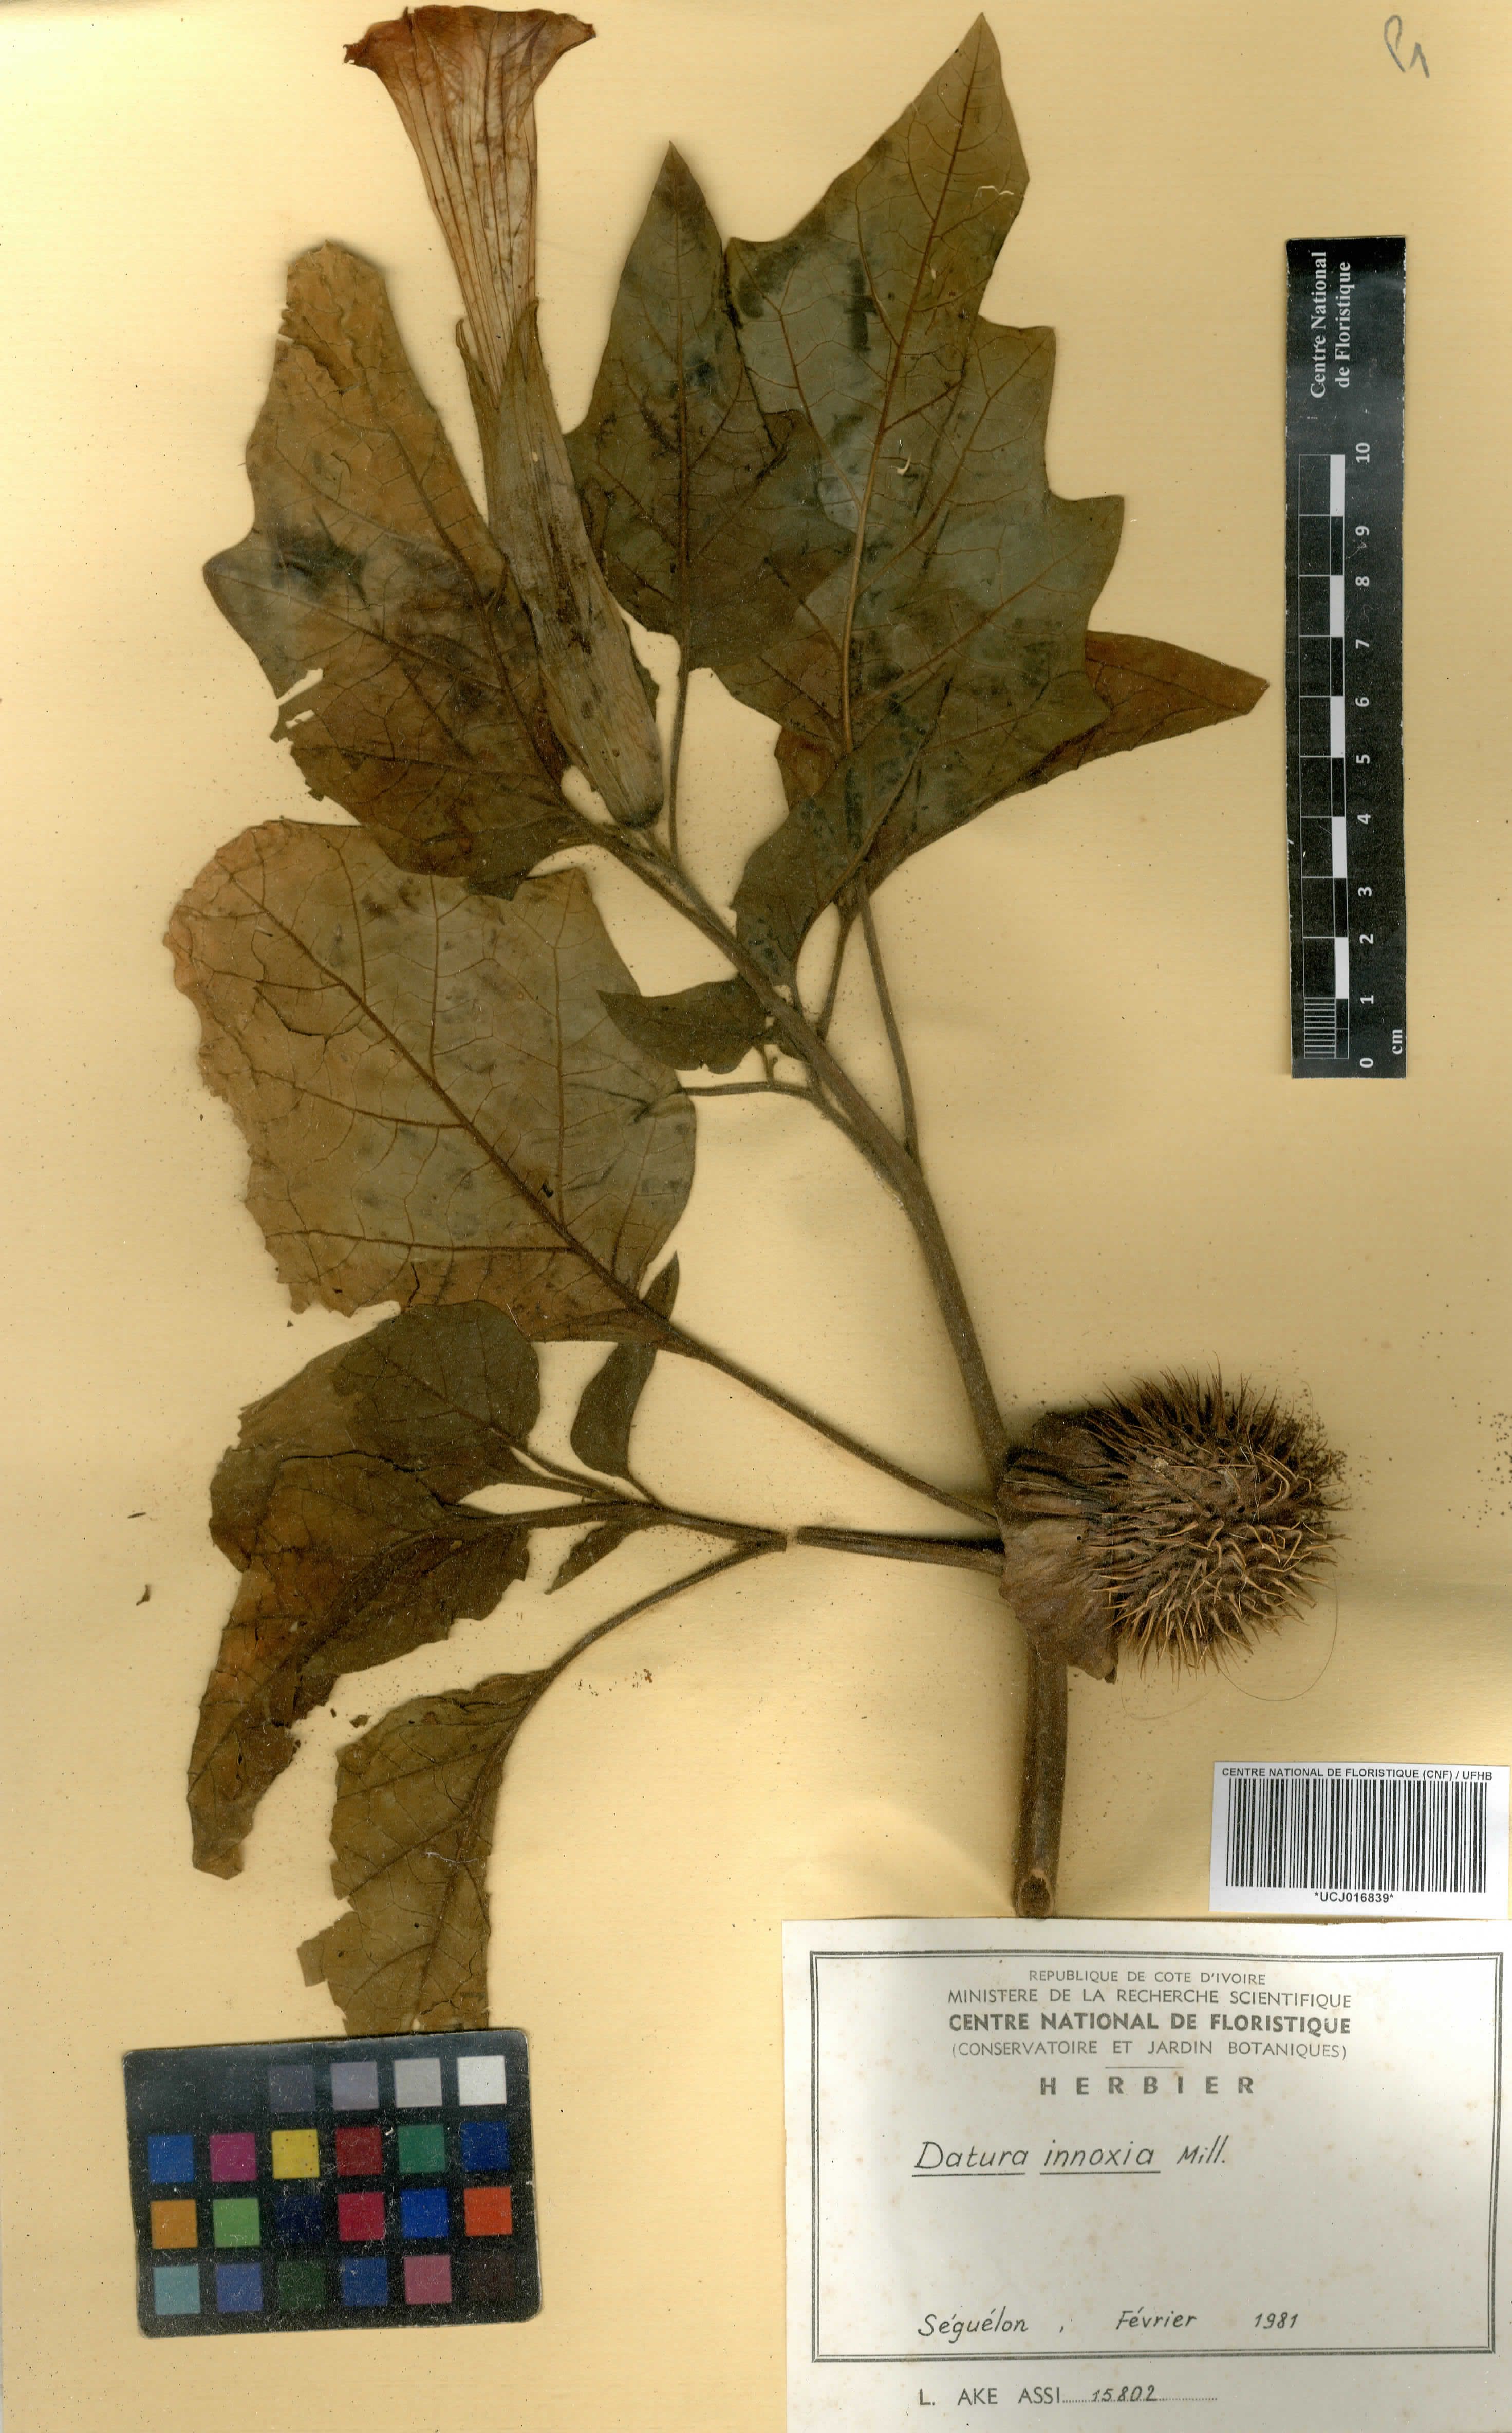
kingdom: Plantae
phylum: Tracheophyta
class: Magnoliopsida
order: Solanales
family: Solanaceae
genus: Datura
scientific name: Datura innoxia
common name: Downy thorn-apple
